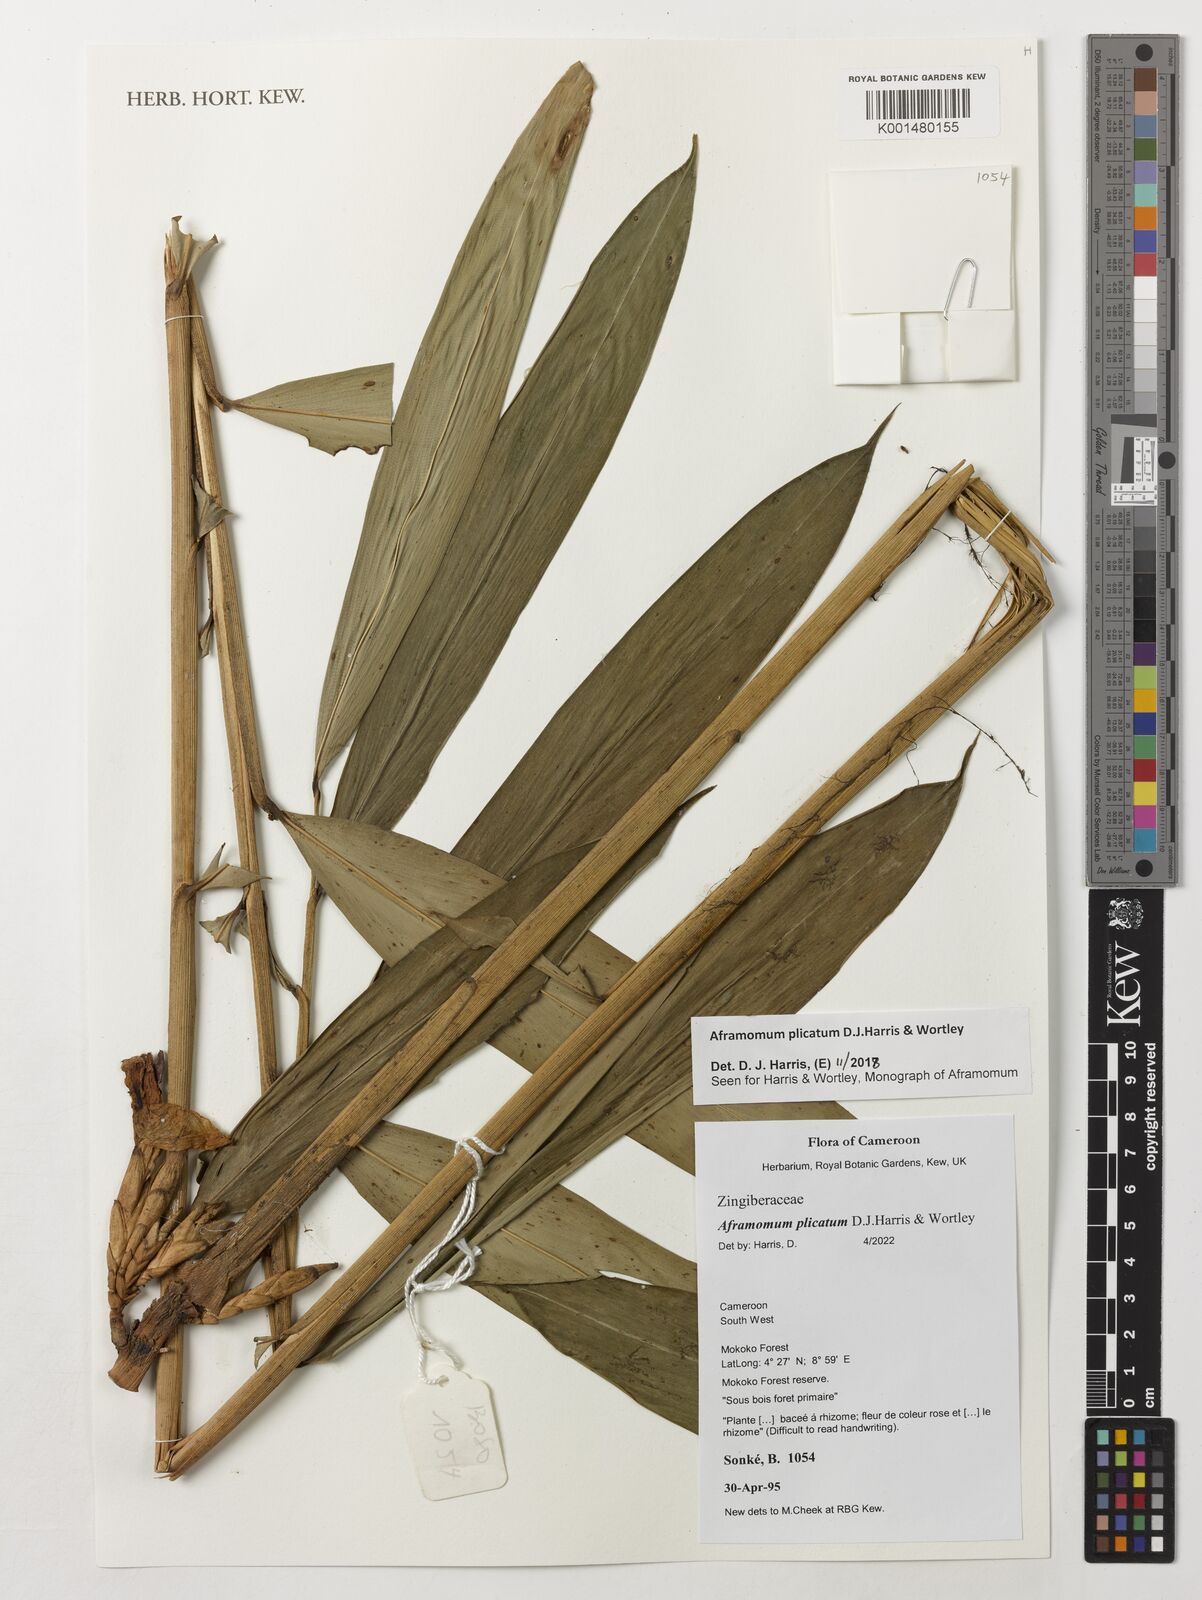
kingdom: Plantae
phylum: Tracheophyta
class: Liliopsida
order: Zingiberales
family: Zingiberaceae
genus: Aframomum
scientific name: Aframomum plicatum
